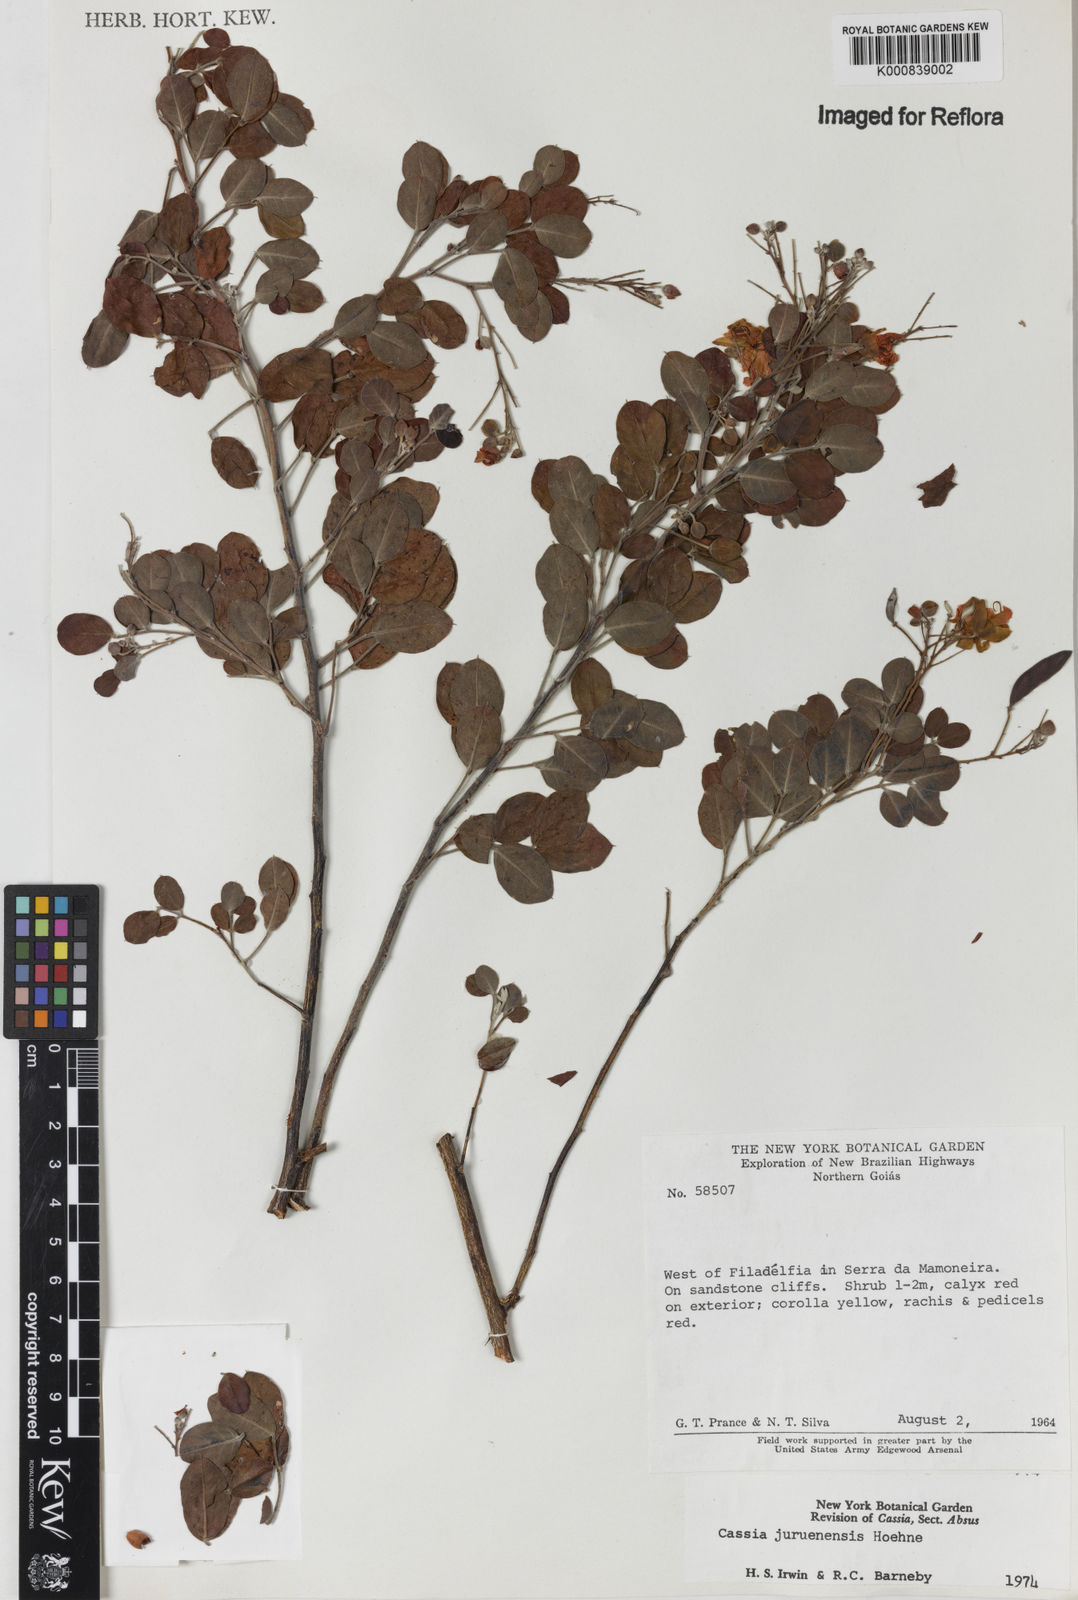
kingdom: Plantae
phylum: Tracheophyta
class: Magnoliopsida
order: Fabales
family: Fabaceae
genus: Chamaecrista
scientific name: Chamaecrista juruenensis
